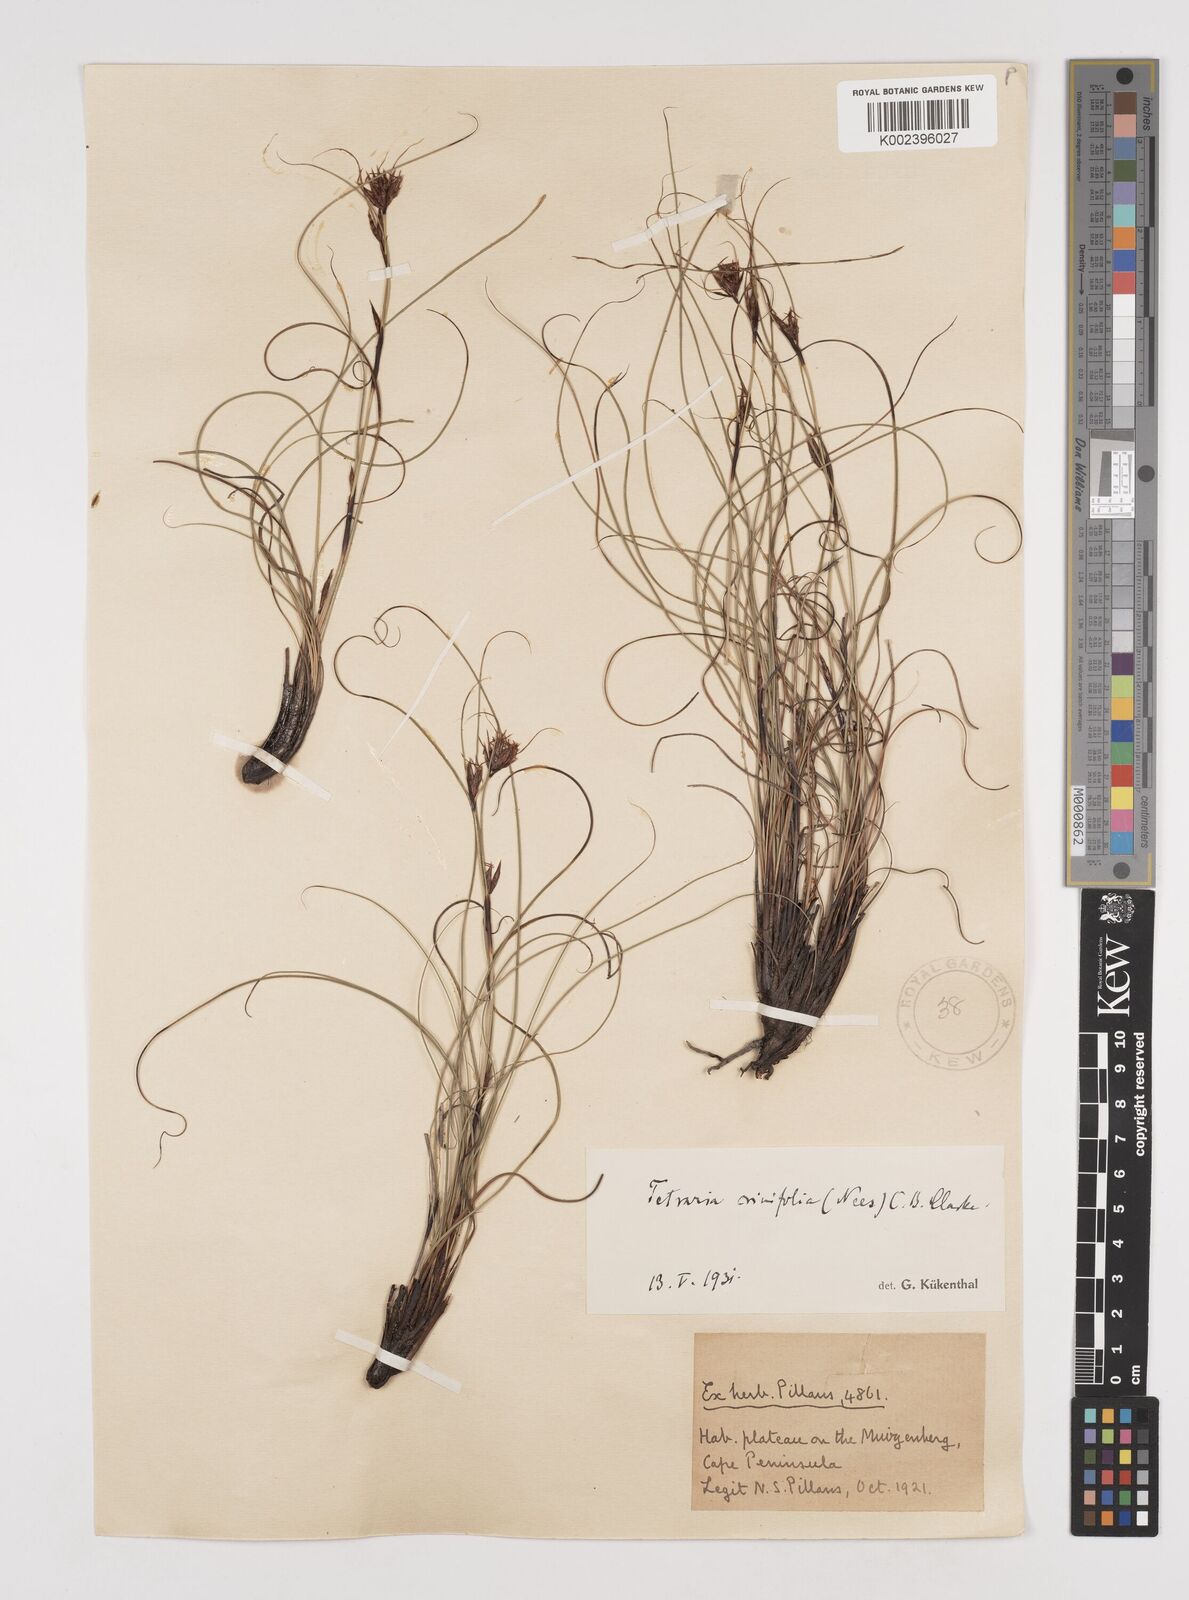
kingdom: Plantae
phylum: Tracheophyta
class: Liliopsida
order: Poales
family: Cyperaceae
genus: Tetraria
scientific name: Tetraria crinifolia
